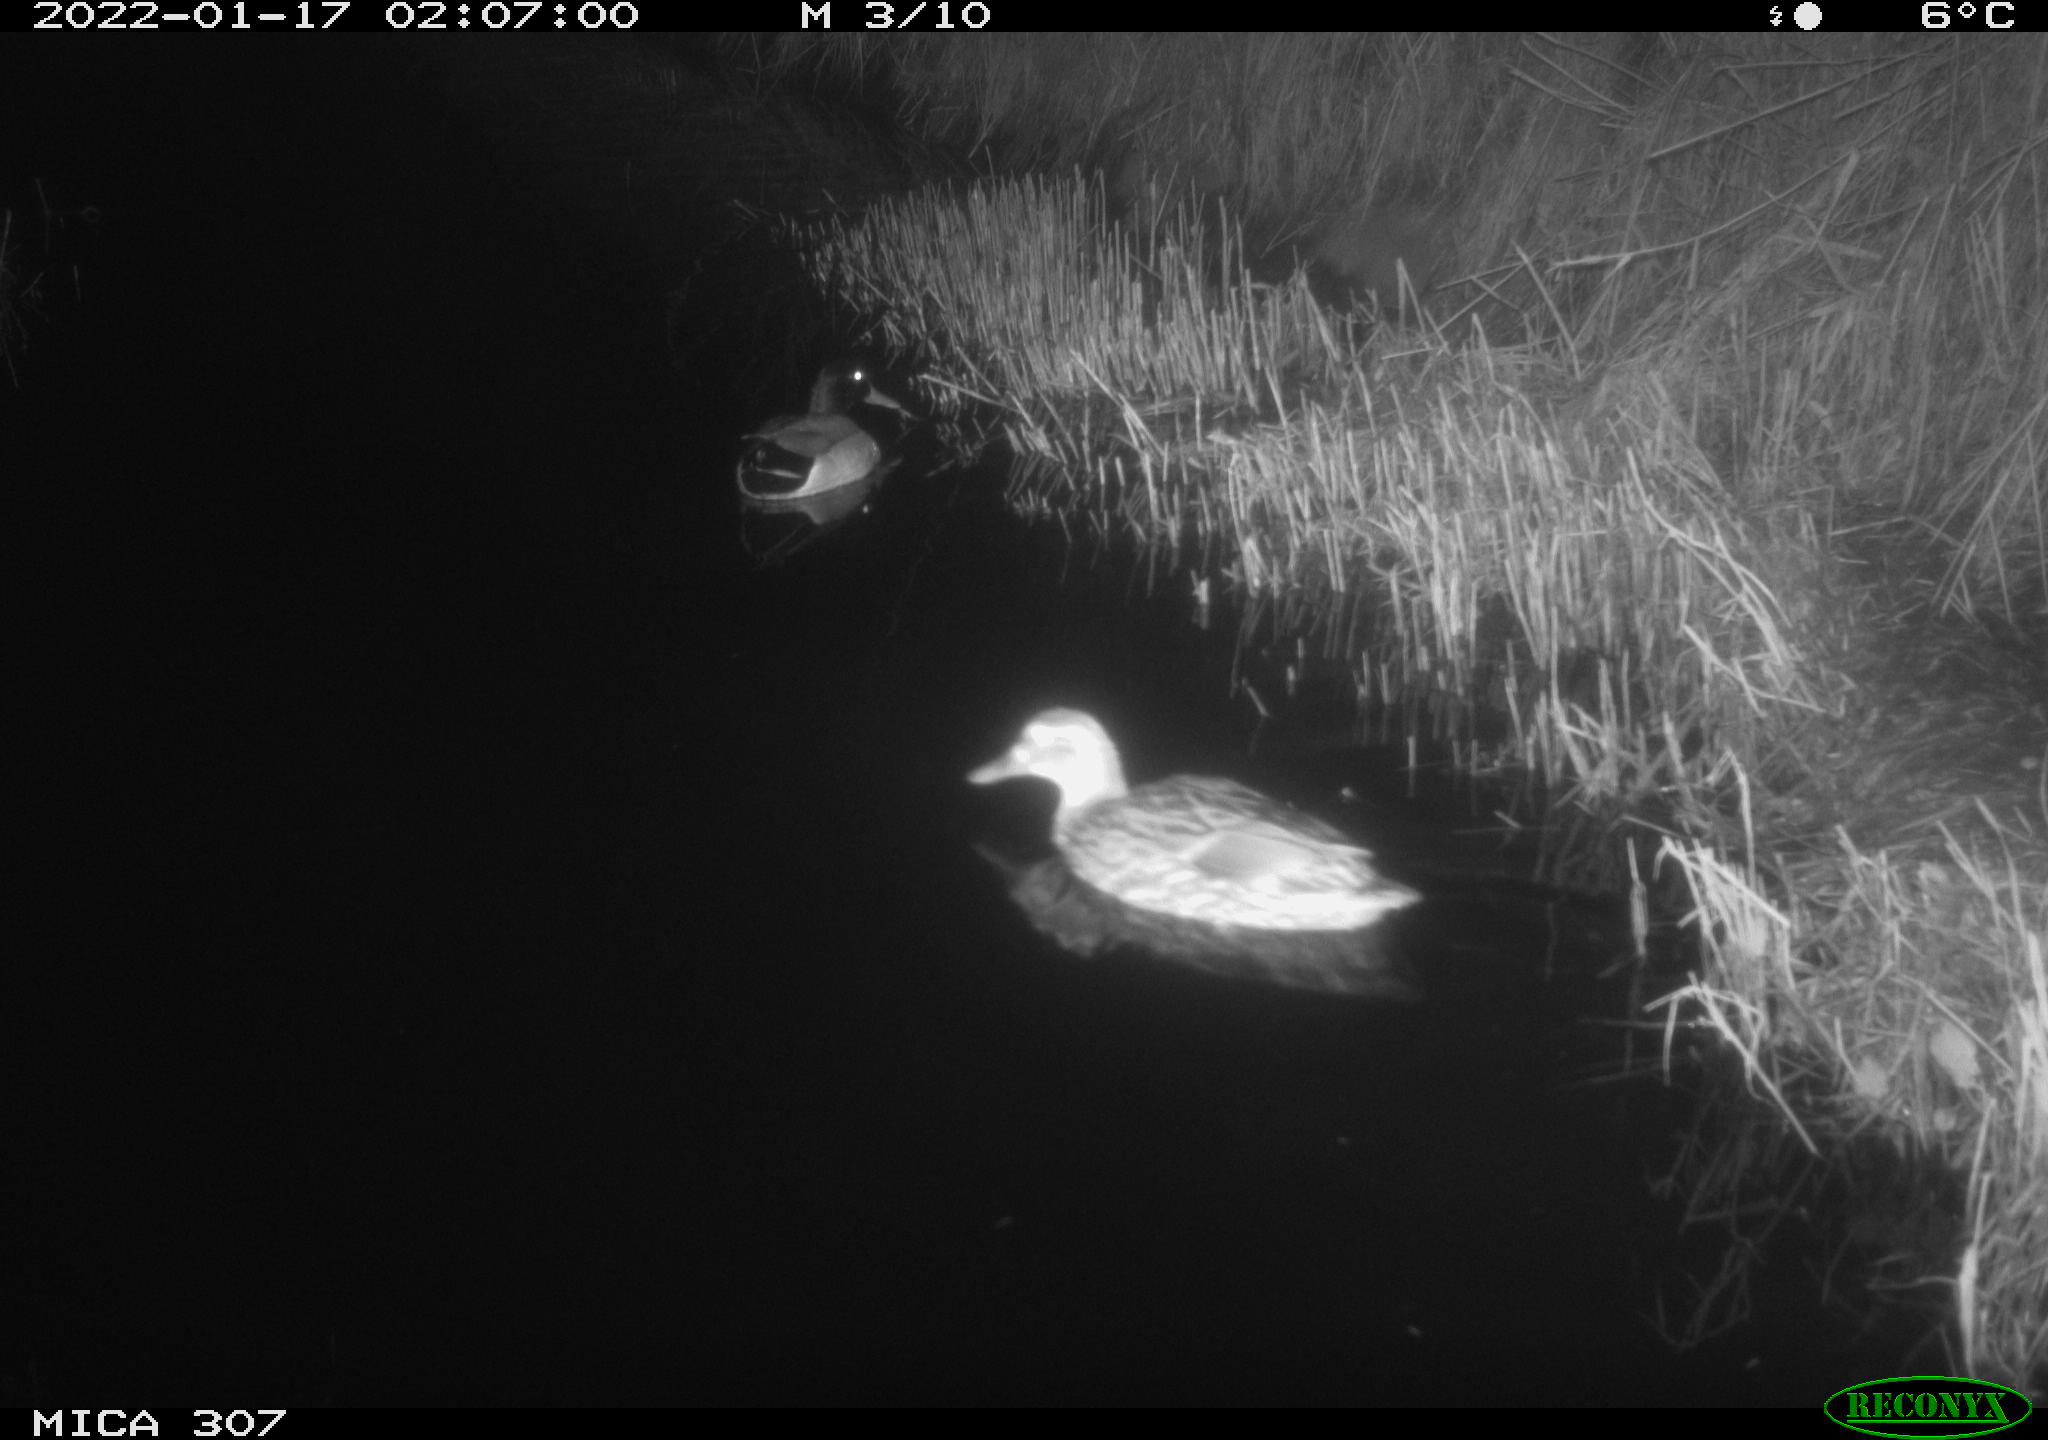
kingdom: Animalia
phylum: Chordata
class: Aves
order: Anseriformes
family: Anatidae
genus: Anas
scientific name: Anas
